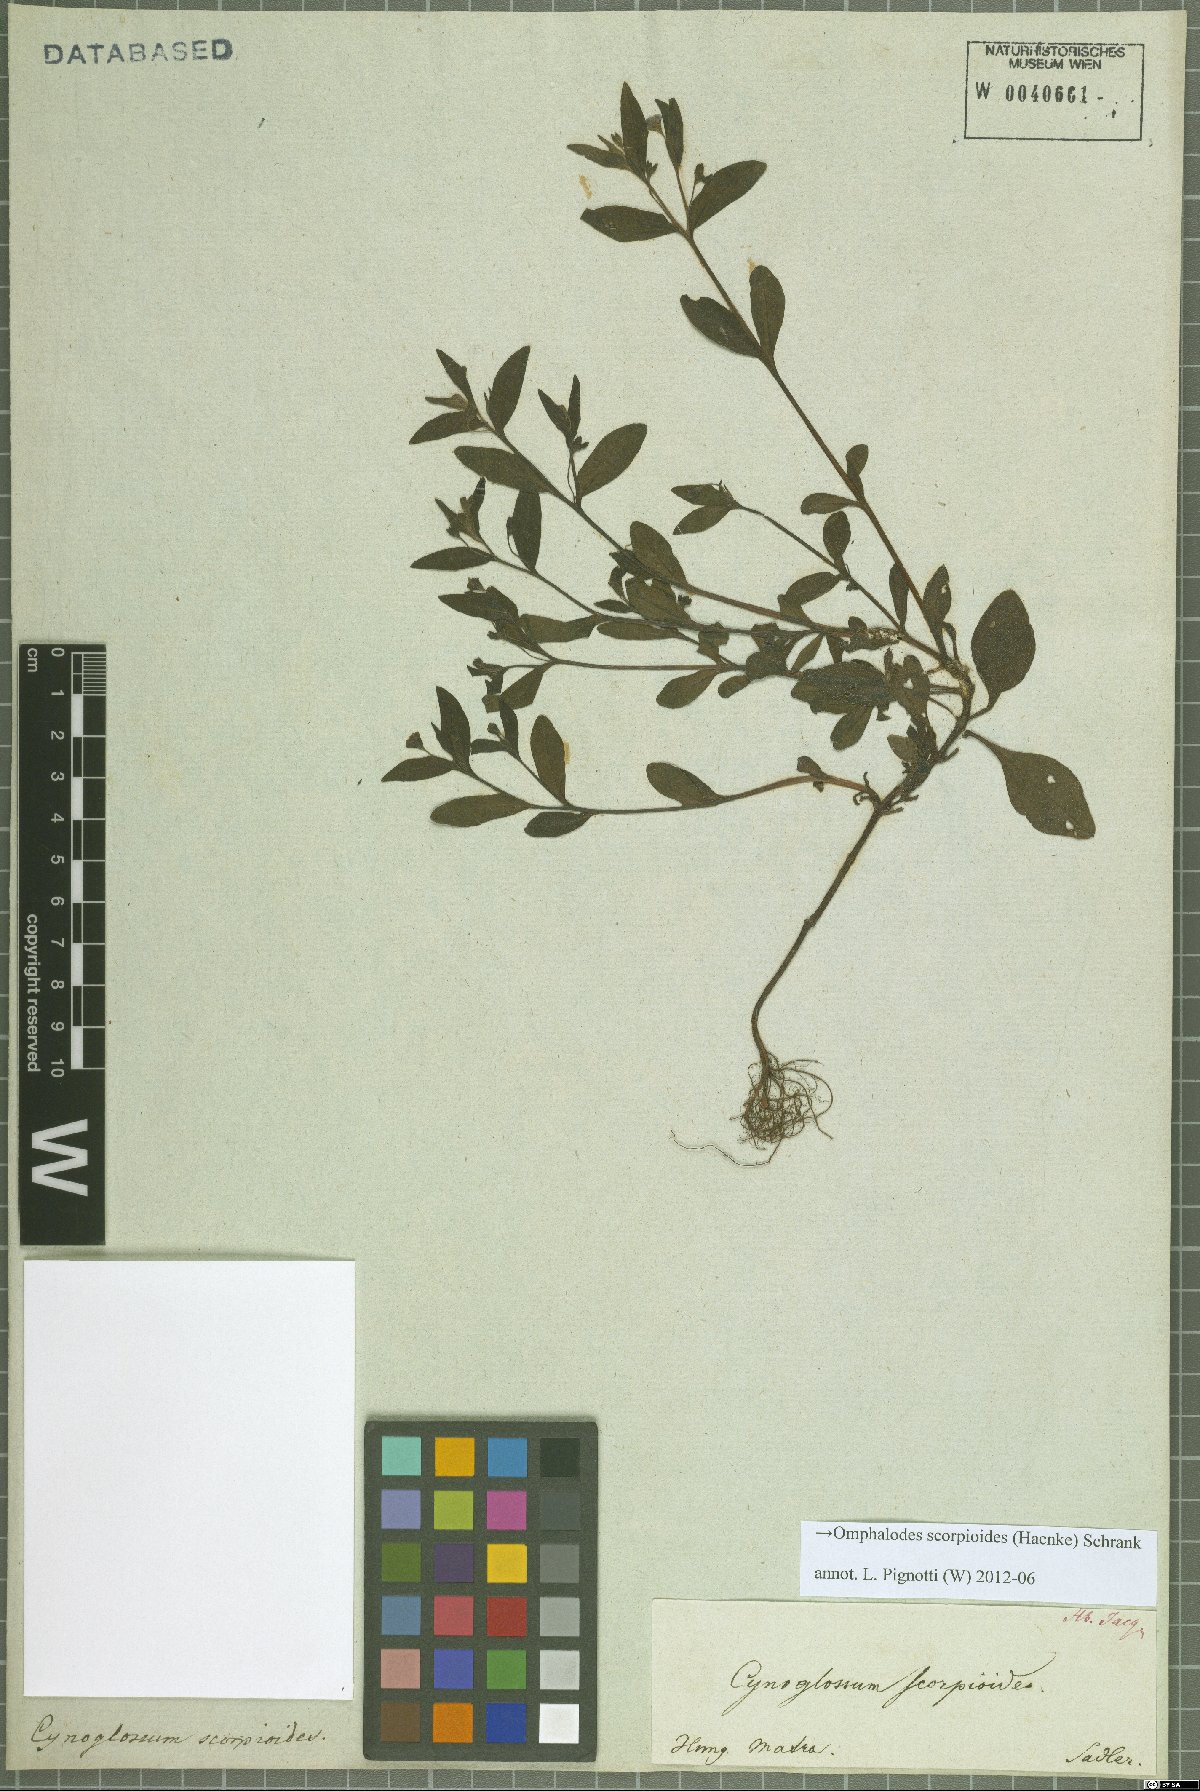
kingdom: Plantae
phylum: Tracheophyta
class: Magnoliopsida
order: Boraginales
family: Boraginaceae
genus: Memoremea
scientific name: Memoremea scorpioides
